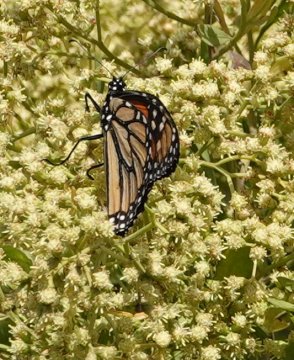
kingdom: Animalia
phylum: Arthropoda
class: Insecta
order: Lepidoptera
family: Nymphalidae
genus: Danaus
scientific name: Danaus plexippus
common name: Monarch
